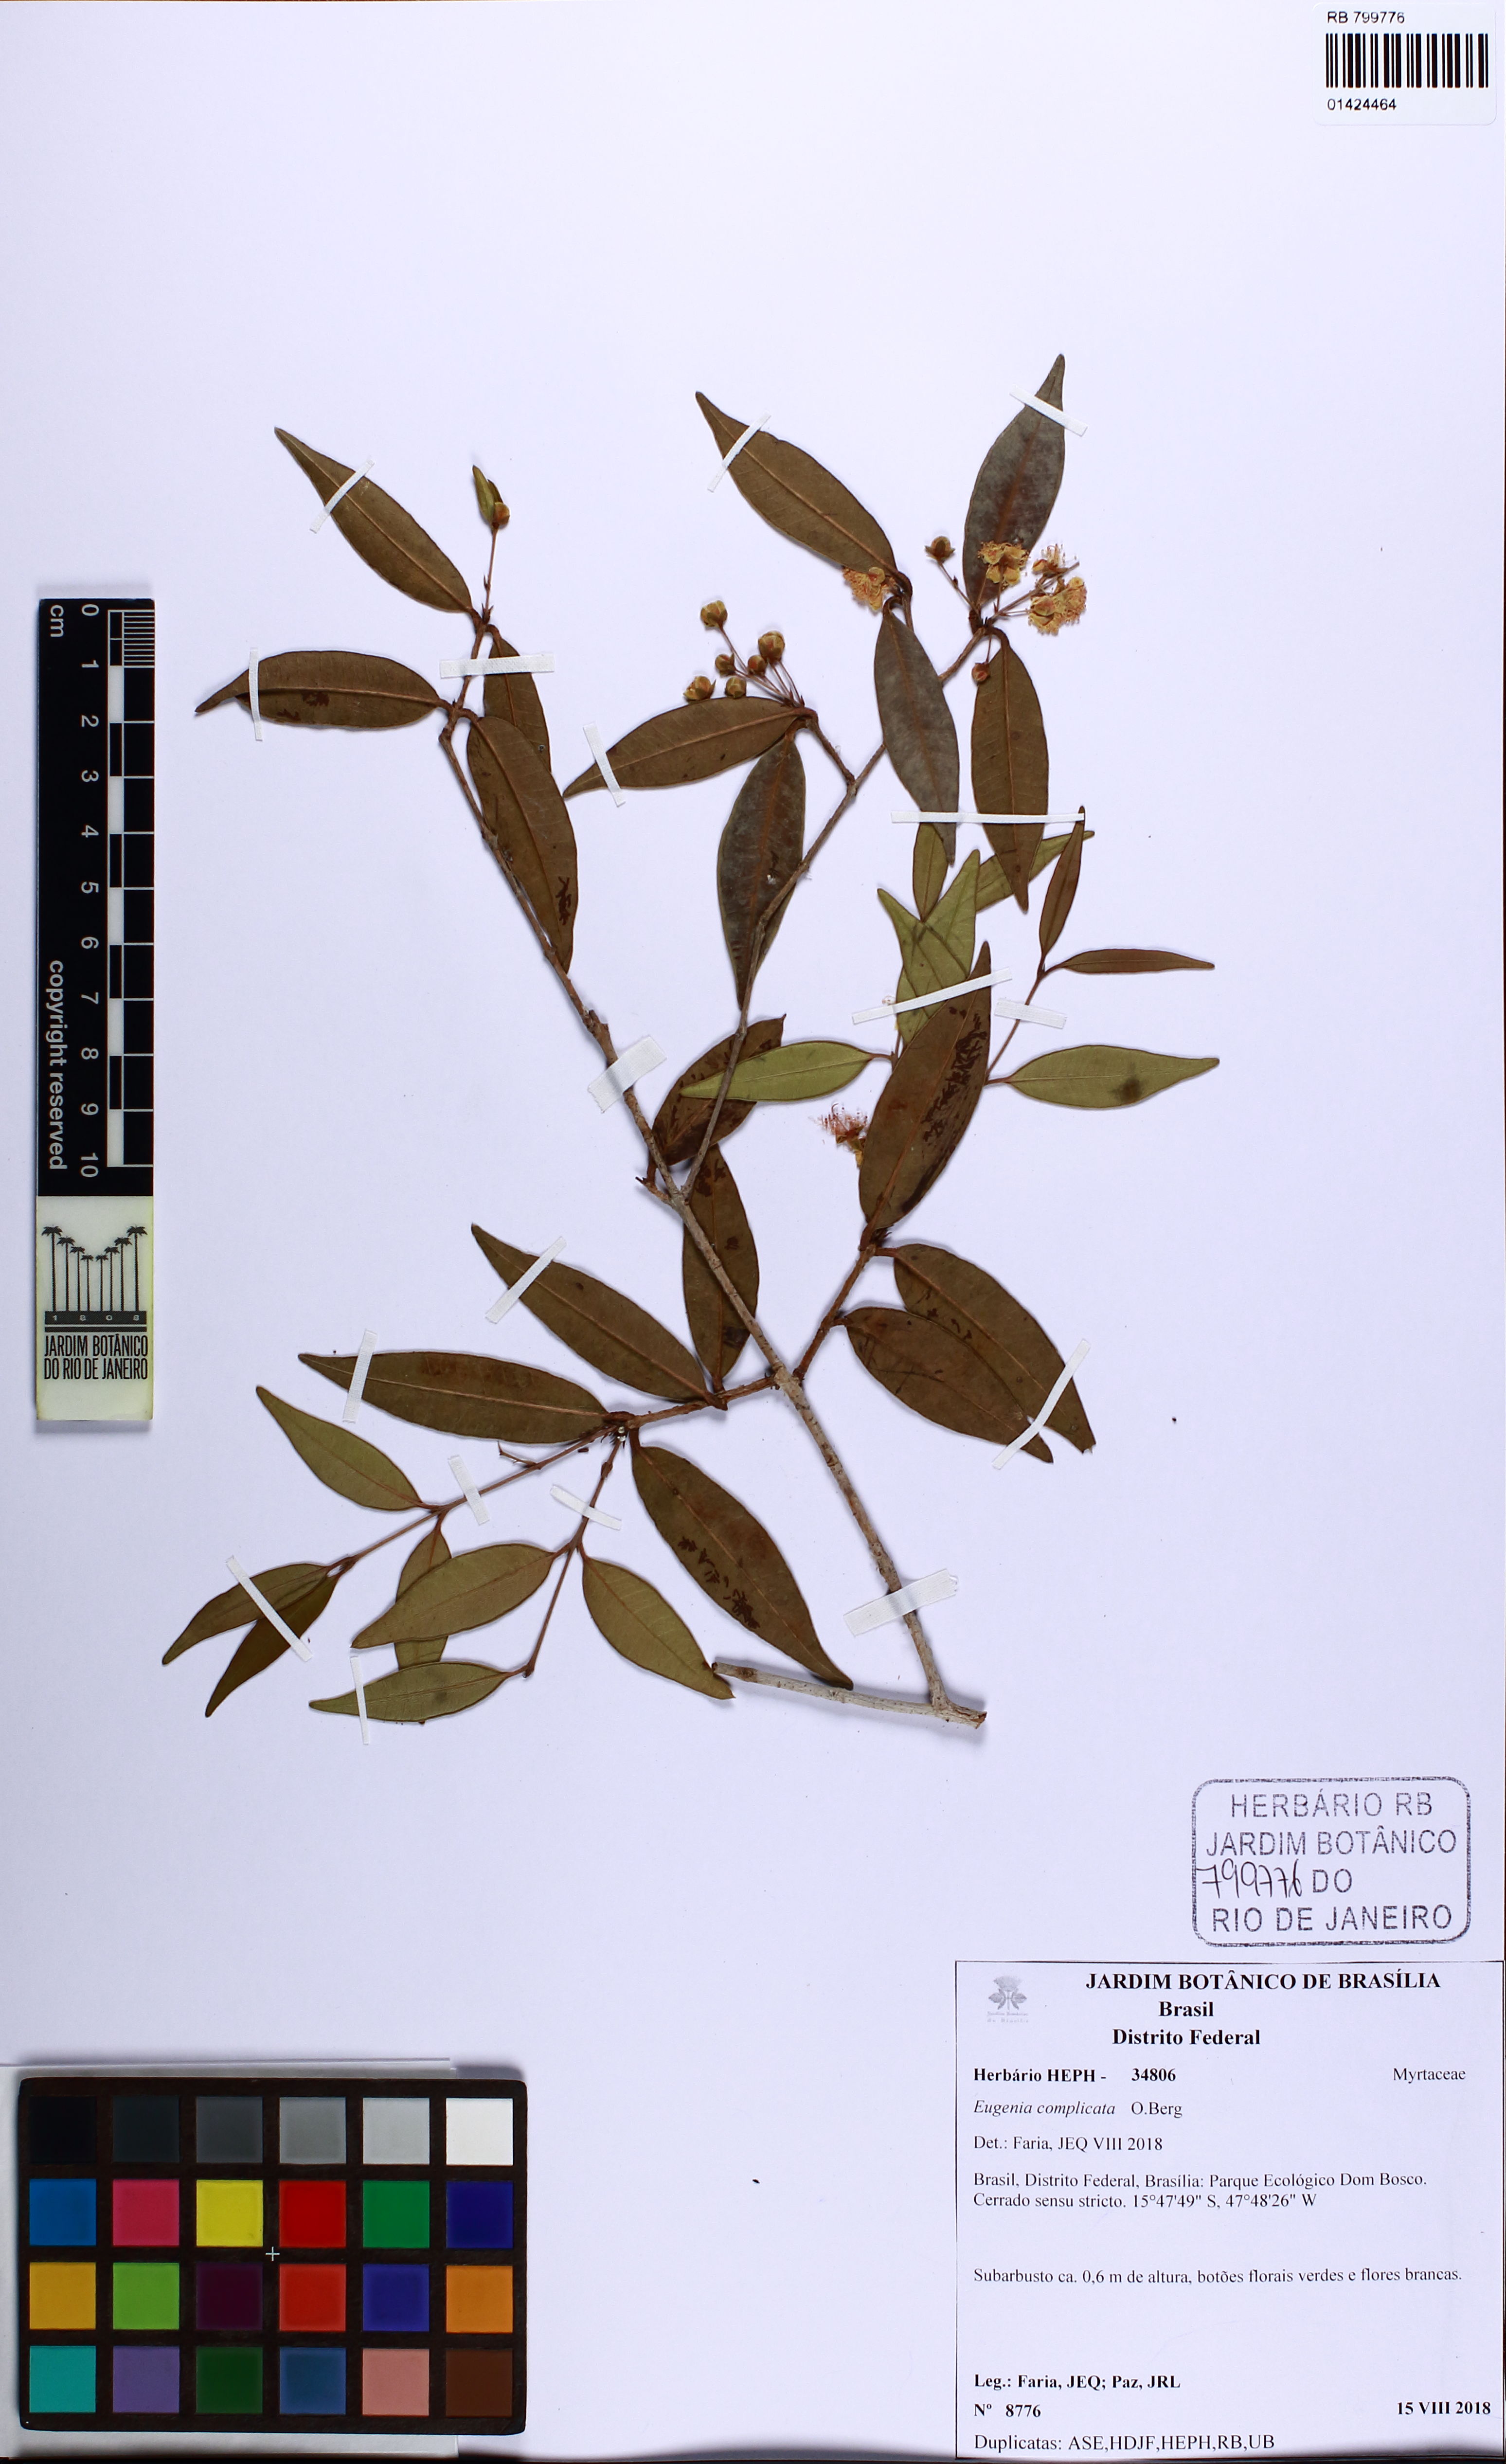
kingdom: Plantae
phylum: Tracheophyta
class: Magnoliopsida
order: Myrtales
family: Myrtaceae
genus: Eugenia
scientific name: Eugenia complicata
